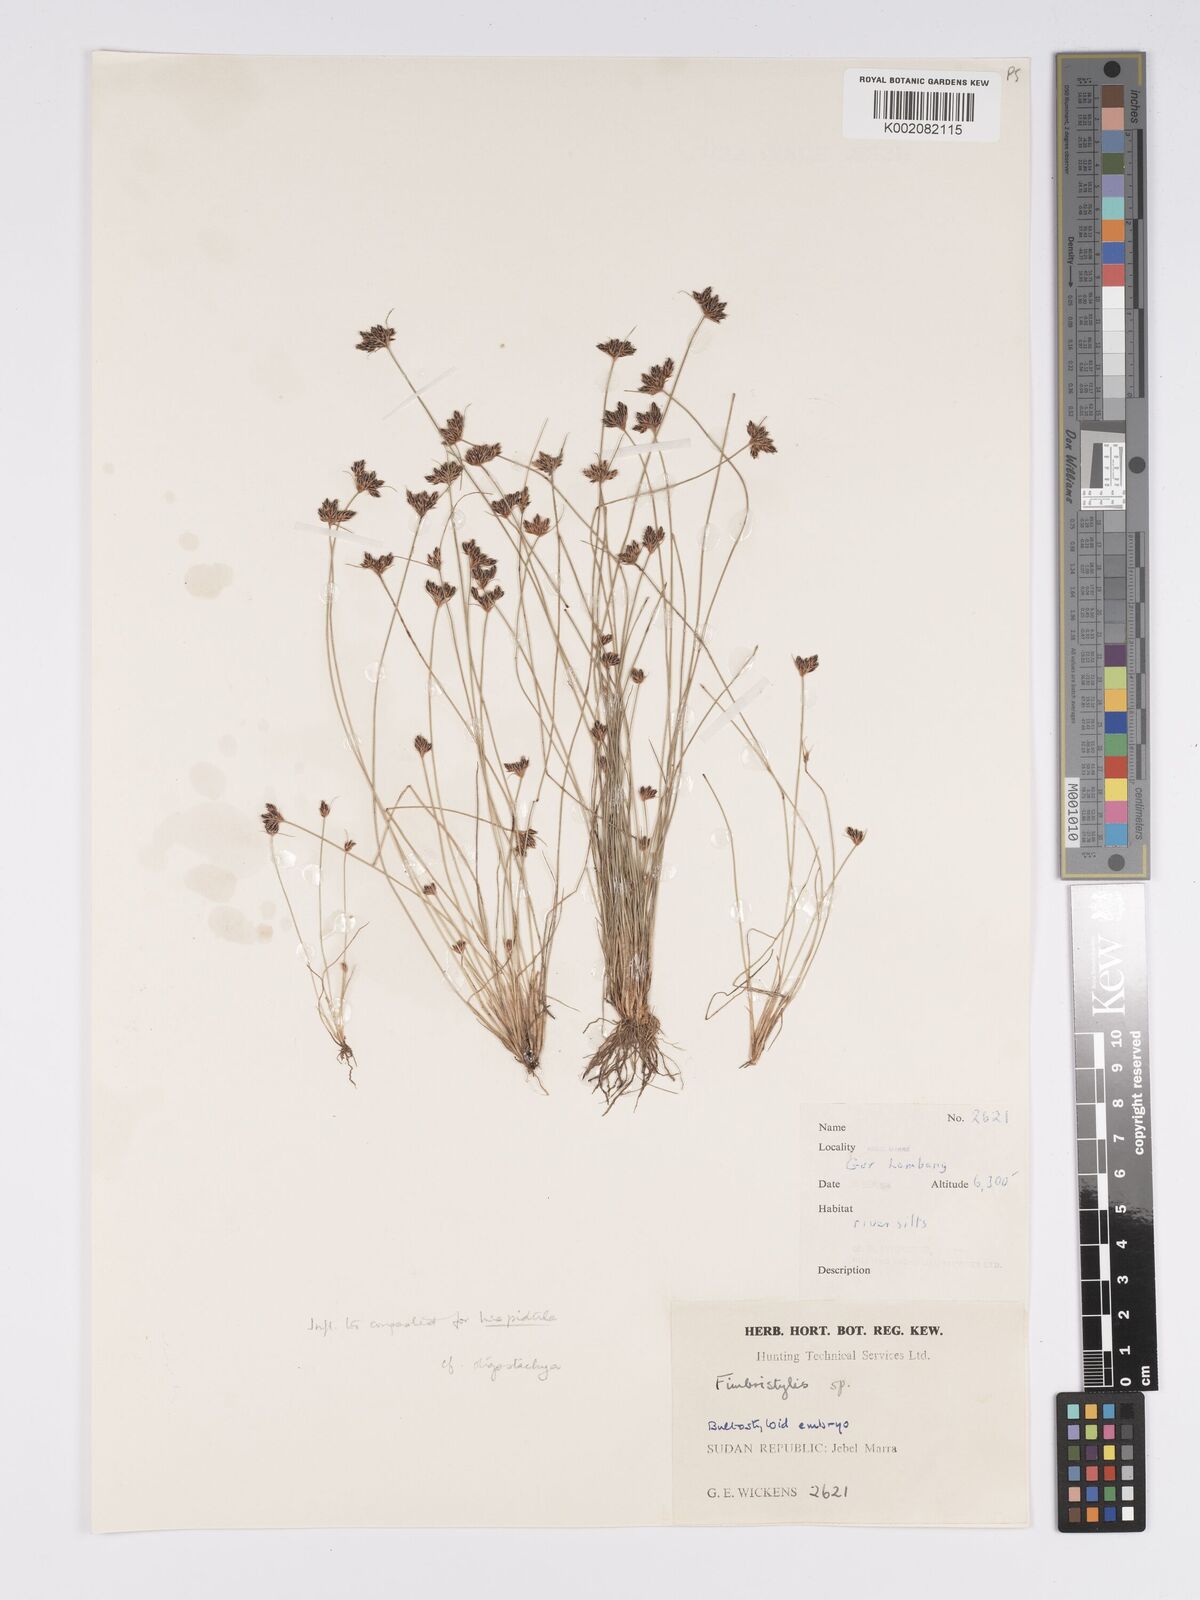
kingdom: Plantae
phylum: Tracheophyta
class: Liliopsida
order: Poales
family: Cyperaceae
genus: Bulbostylis
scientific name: Bulbostylis oligostachys
